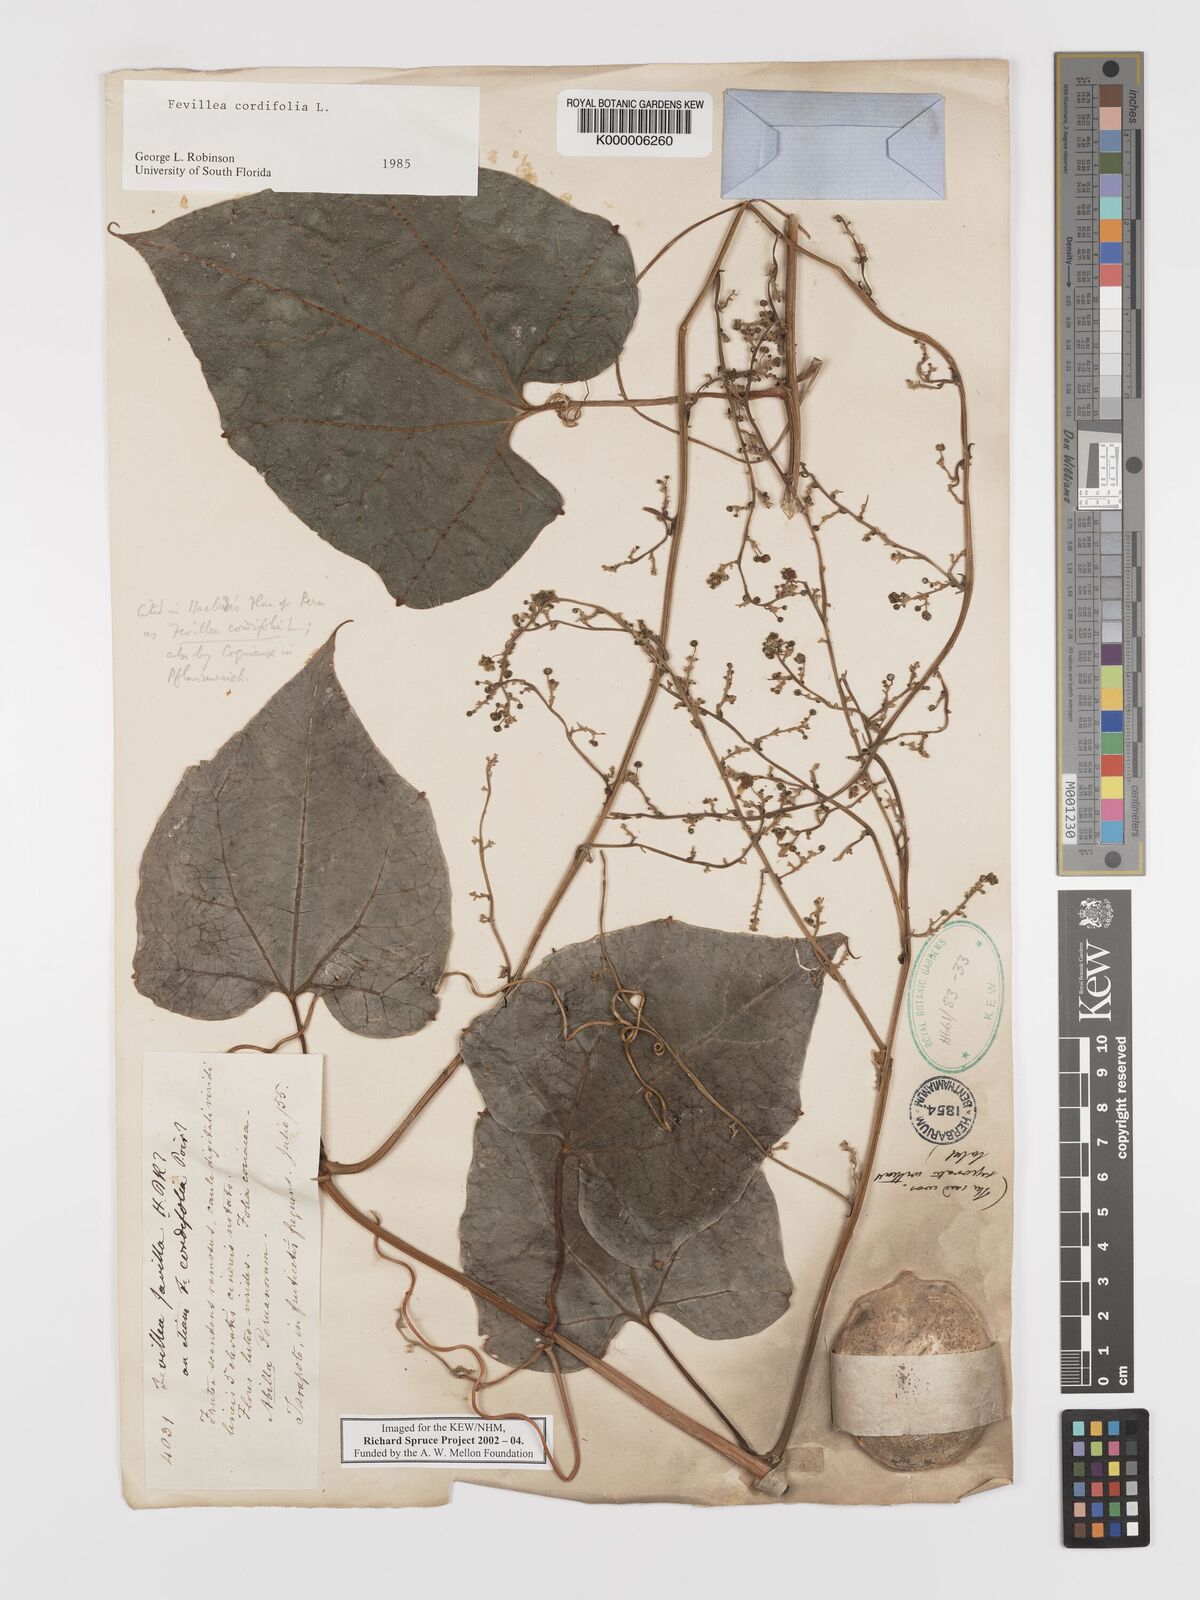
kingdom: Plantae
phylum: Tracheophyta
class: Magnoliopsida
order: Cucurbitales
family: Cucurbitaceae
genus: Fevillea
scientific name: Fevillea cordifolia
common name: Antidote-vine
